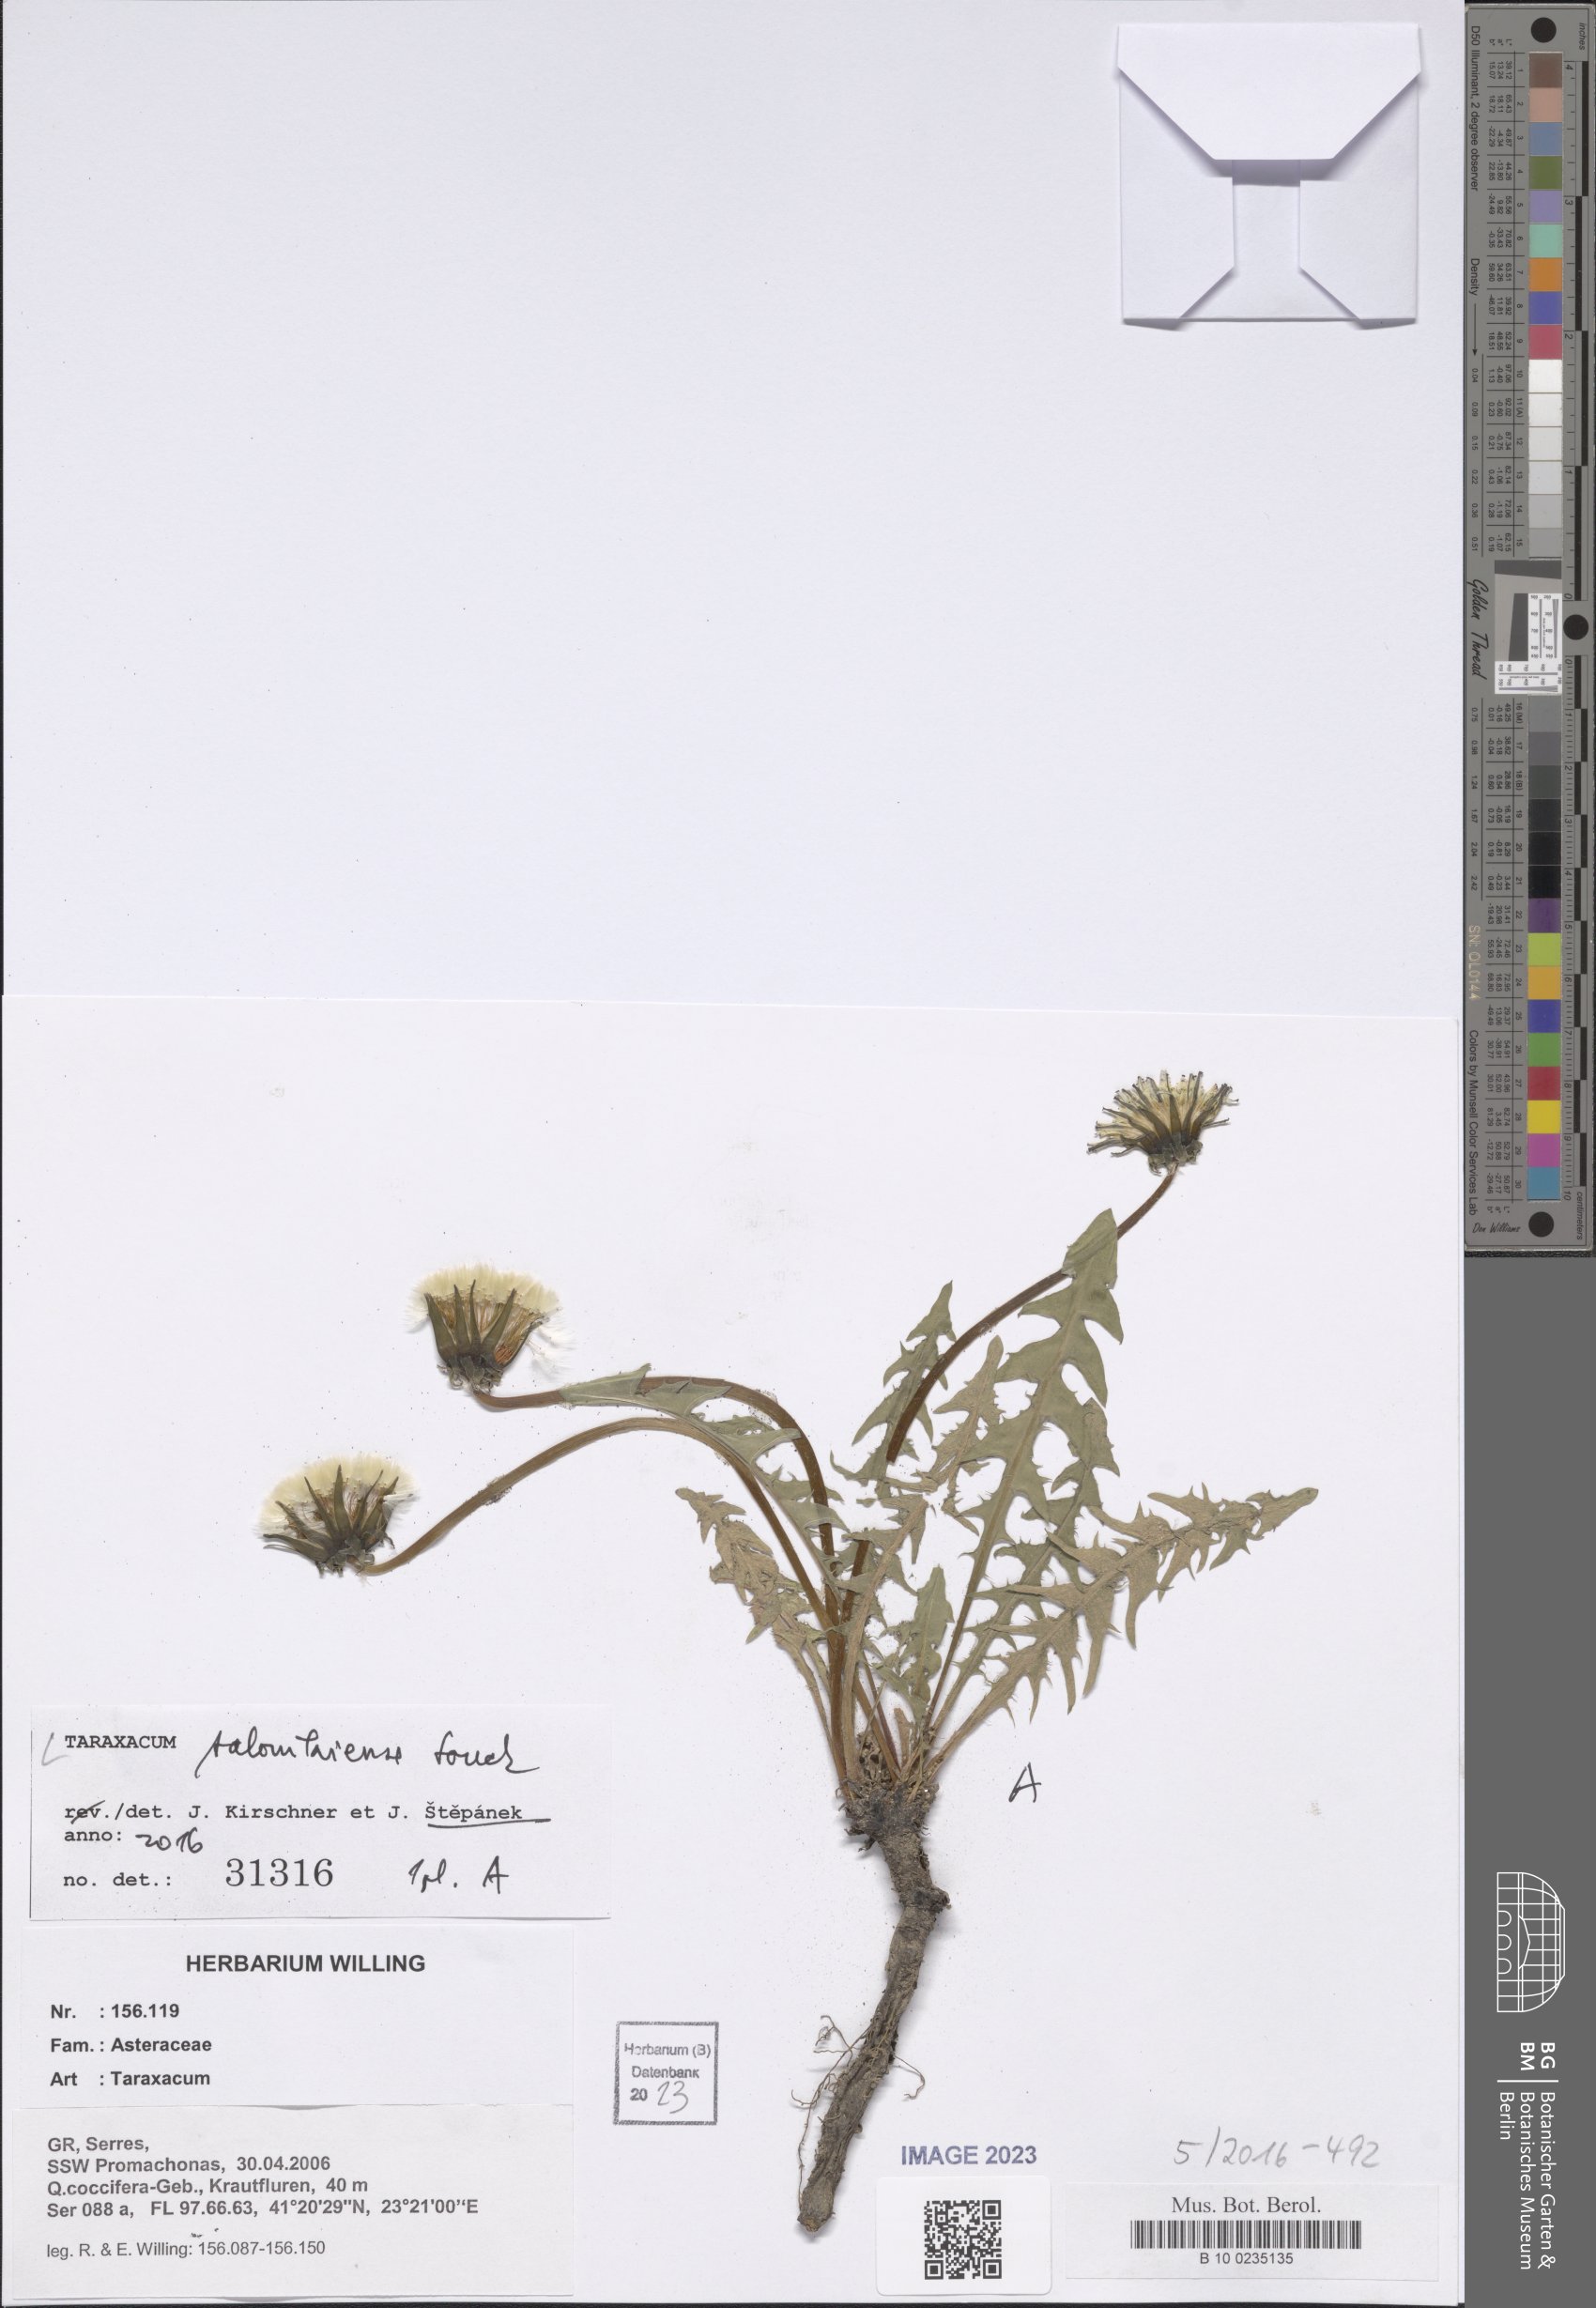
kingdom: Plantae
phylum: Tracheophyta
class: Magnoliopsida
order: Asterales
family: Asteraceae
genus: Taraxacum
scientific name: Taraxacum salonikiense
